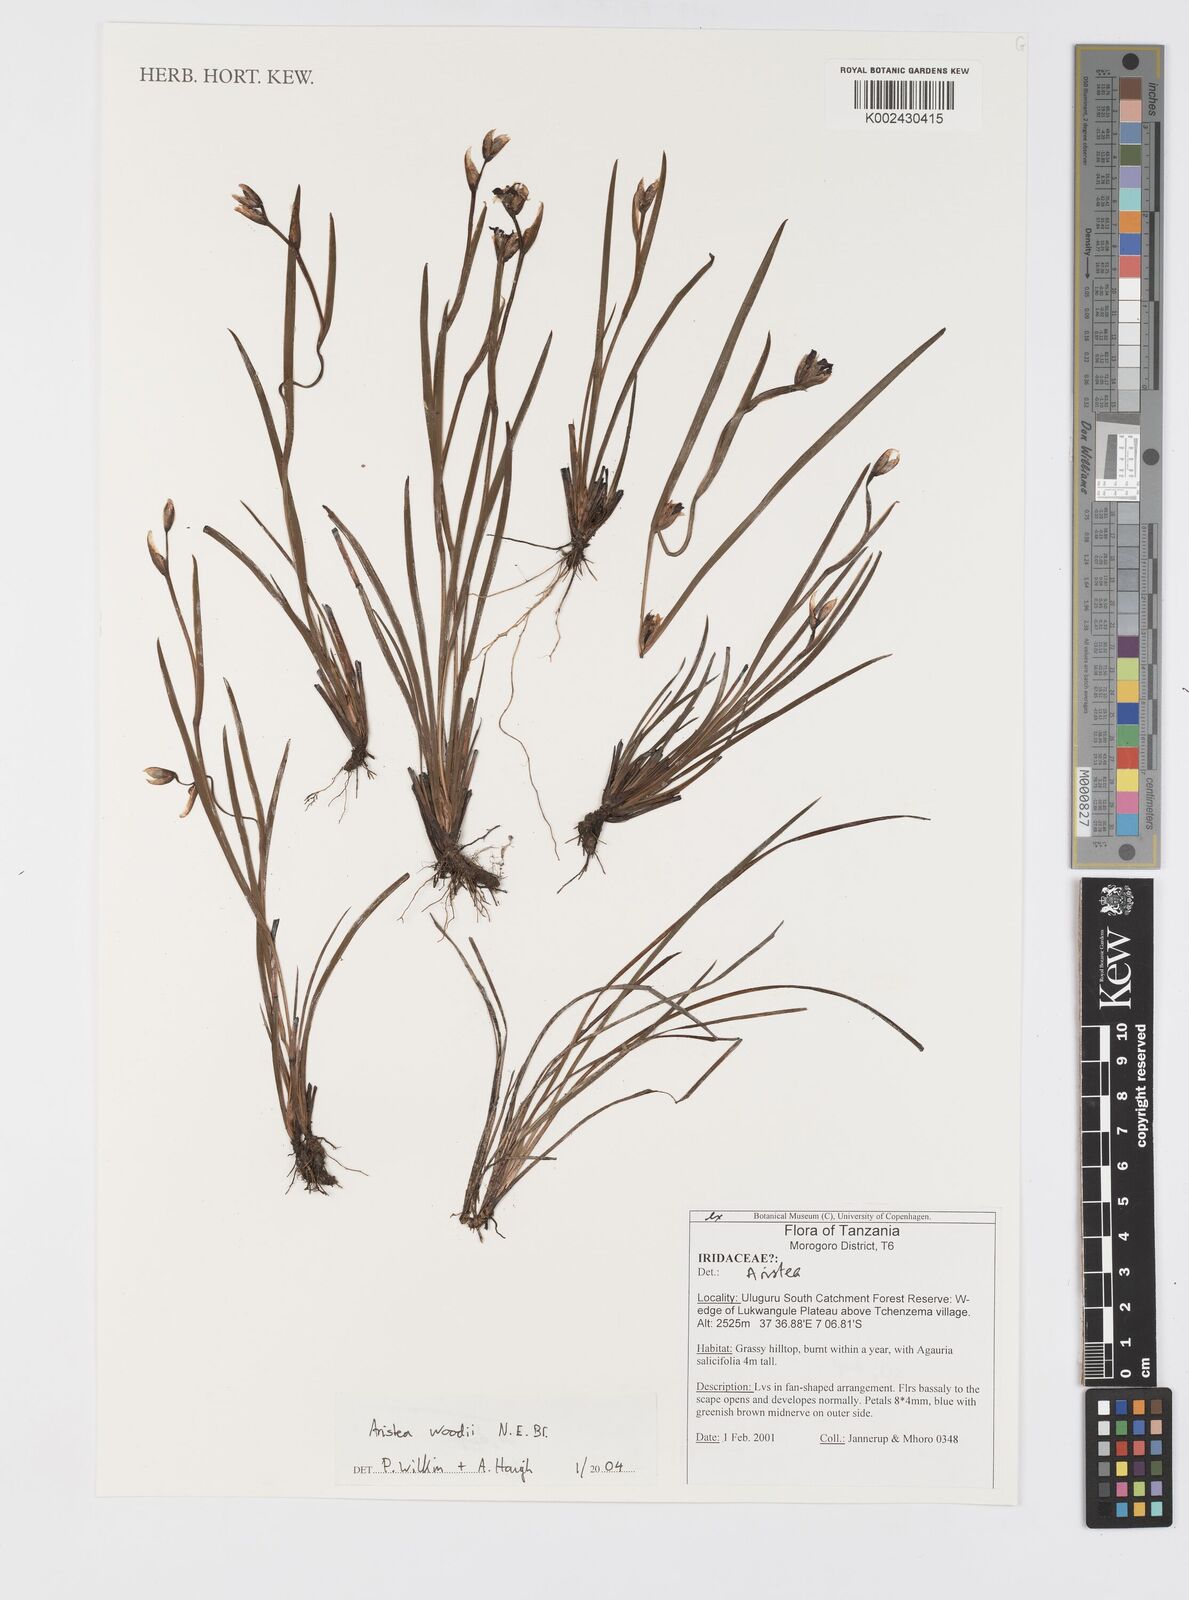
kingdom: Plantae
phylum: Tracheophyta
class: Liliopsida
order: Asparagales
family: Iridaceae
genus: Aristea
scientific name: Aristea torulosa
